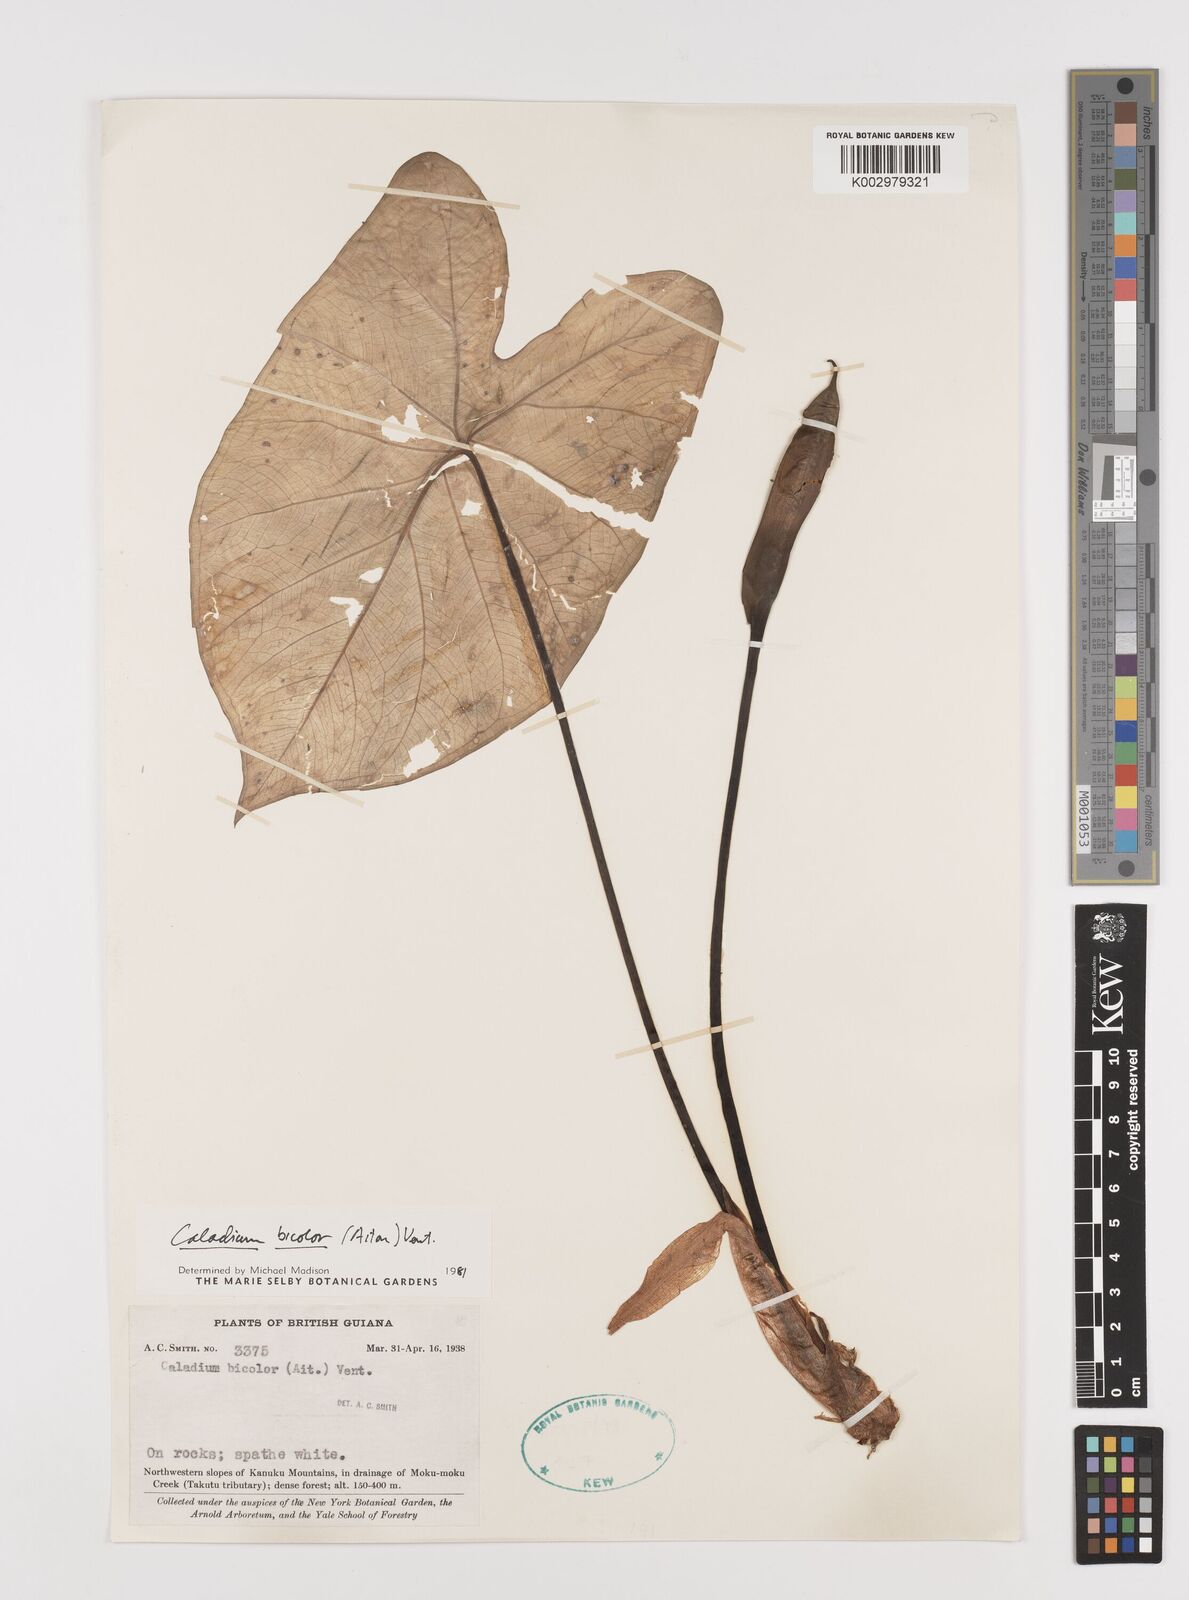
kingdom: Plantae
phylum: Tracheophyta
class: Liliopsida
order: Alismatales
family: Araceae
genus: Caladium
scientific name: Caladium bicolor
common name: Artist's pallet
